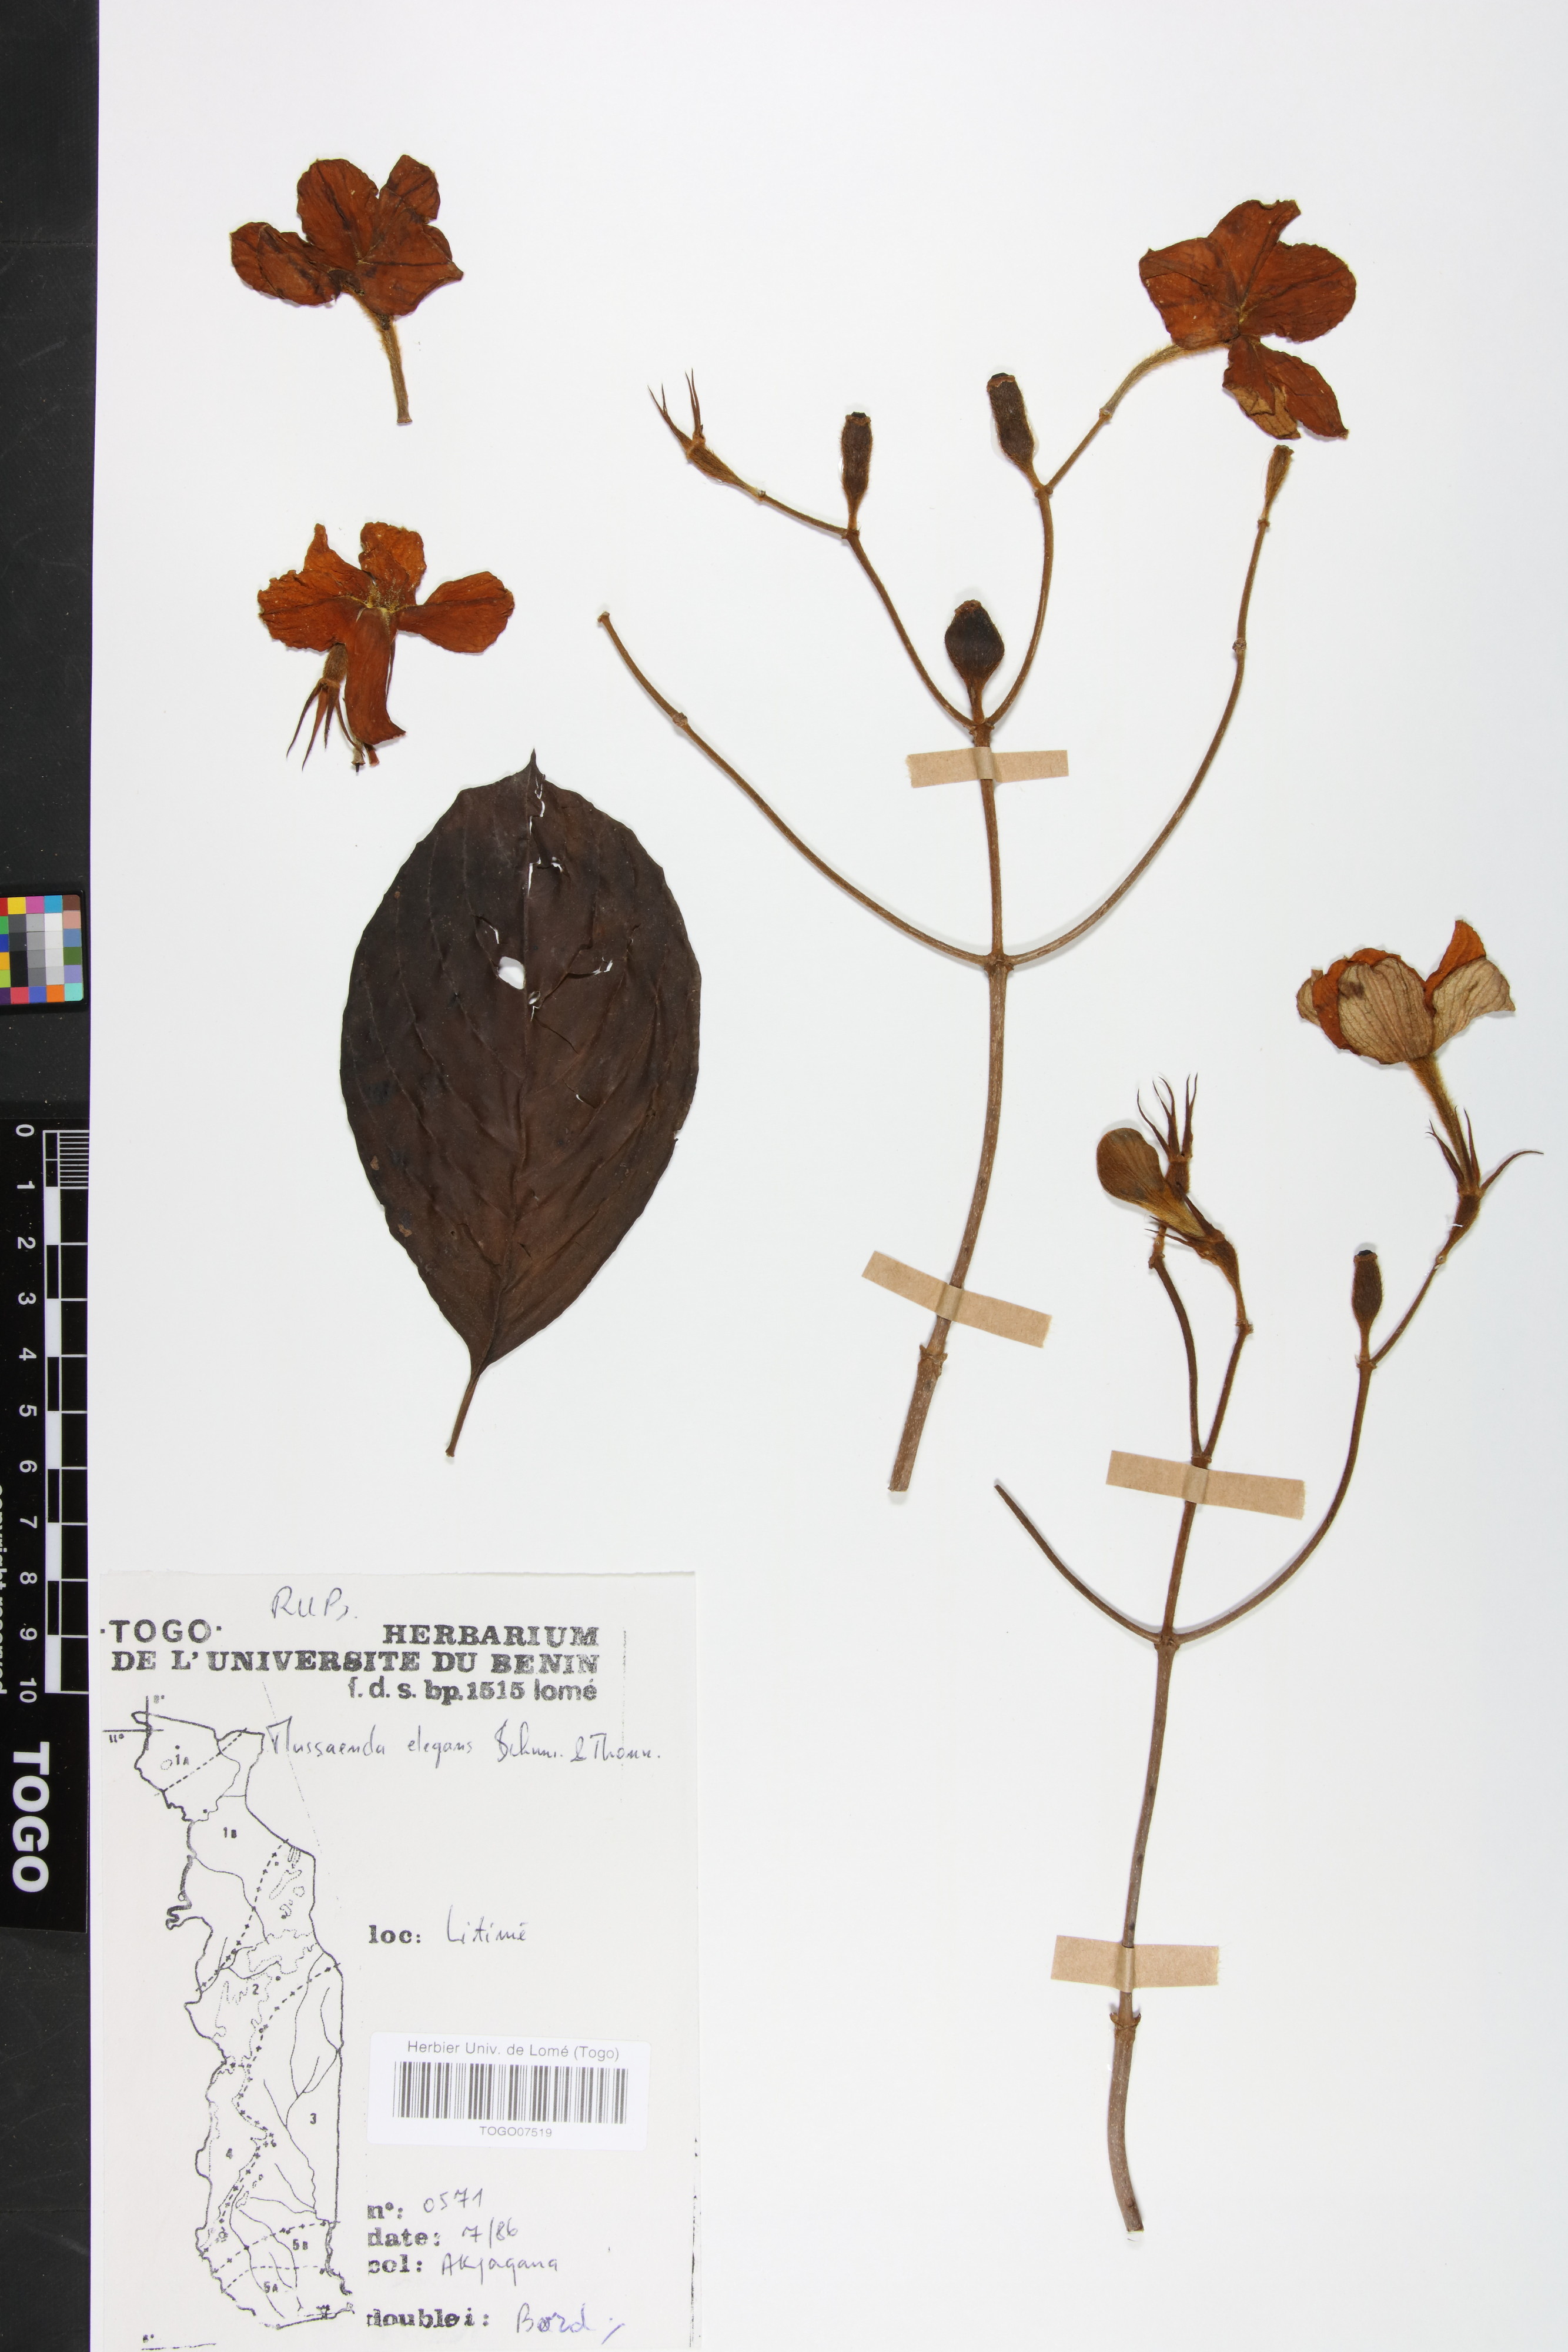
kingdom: Plantae
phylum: Tracheophyta
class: Magnoliopsida
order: Gentianales
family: Rubiaceae
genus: Mussaenda
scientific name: Mussaenda elegans
